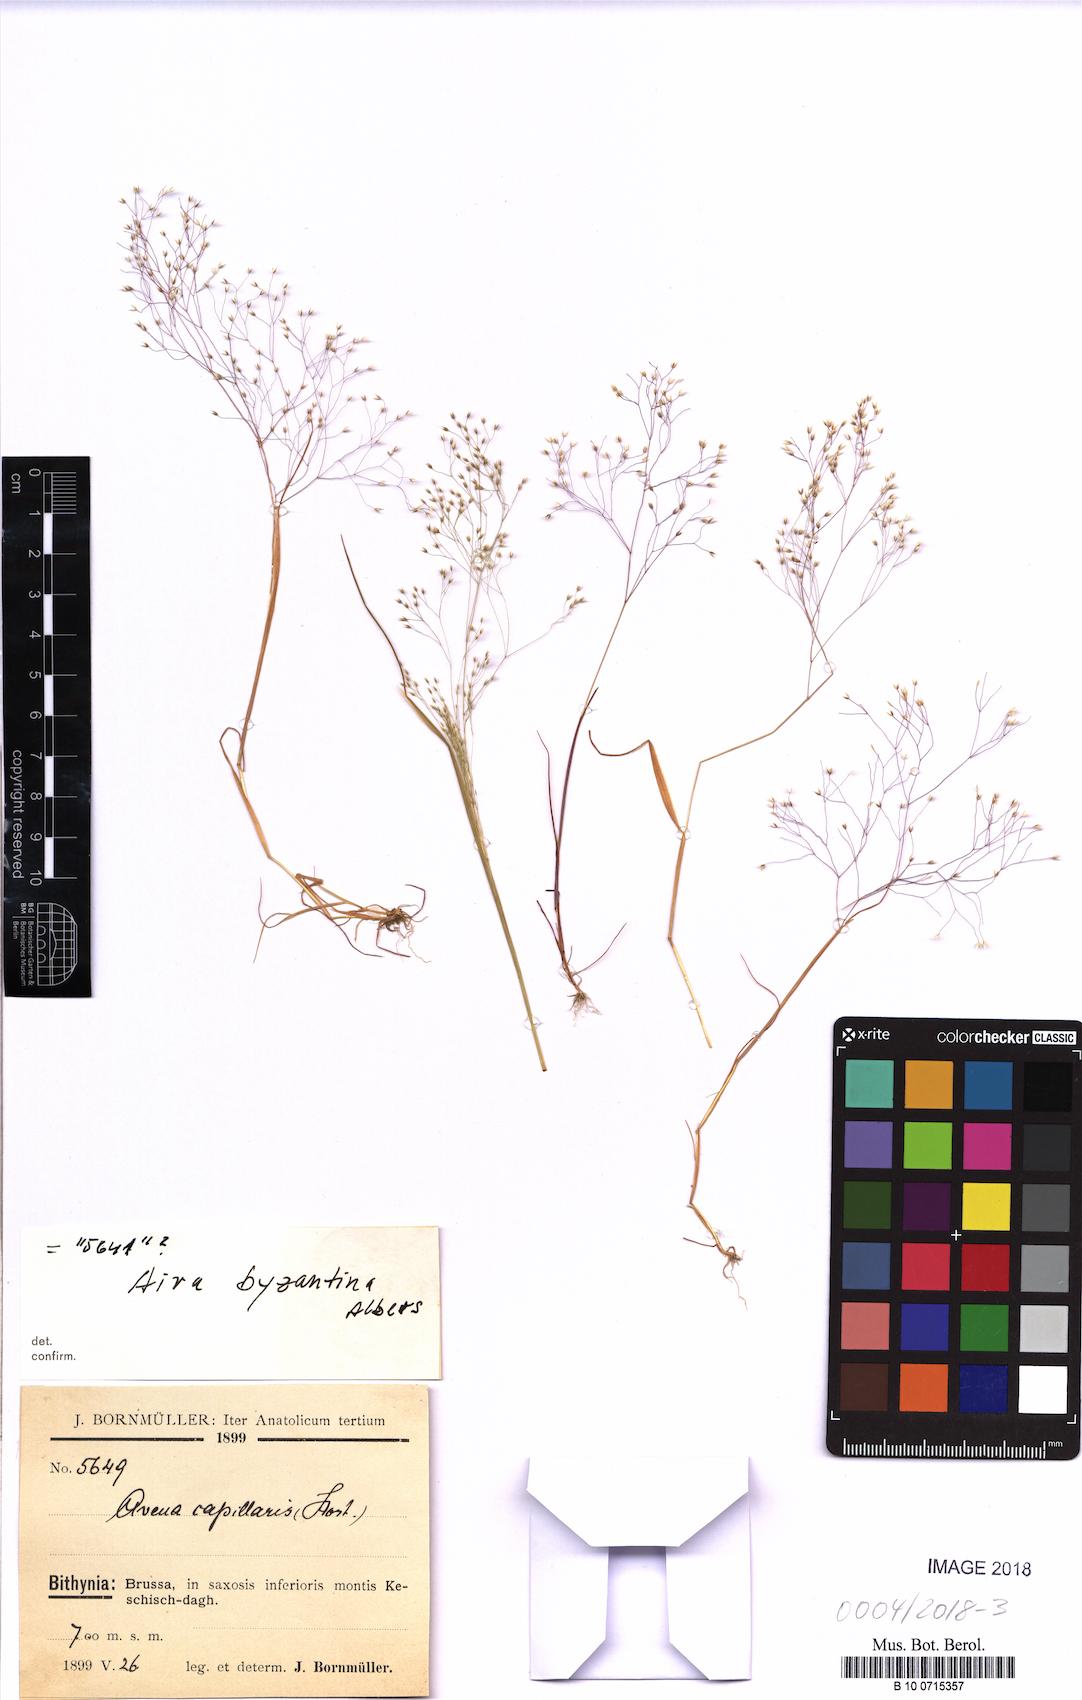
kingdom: Plantae
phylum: Tracheophyta
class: Liliopsida
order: Poales
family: Poaceae
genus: Aira
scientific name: Aira elegans
